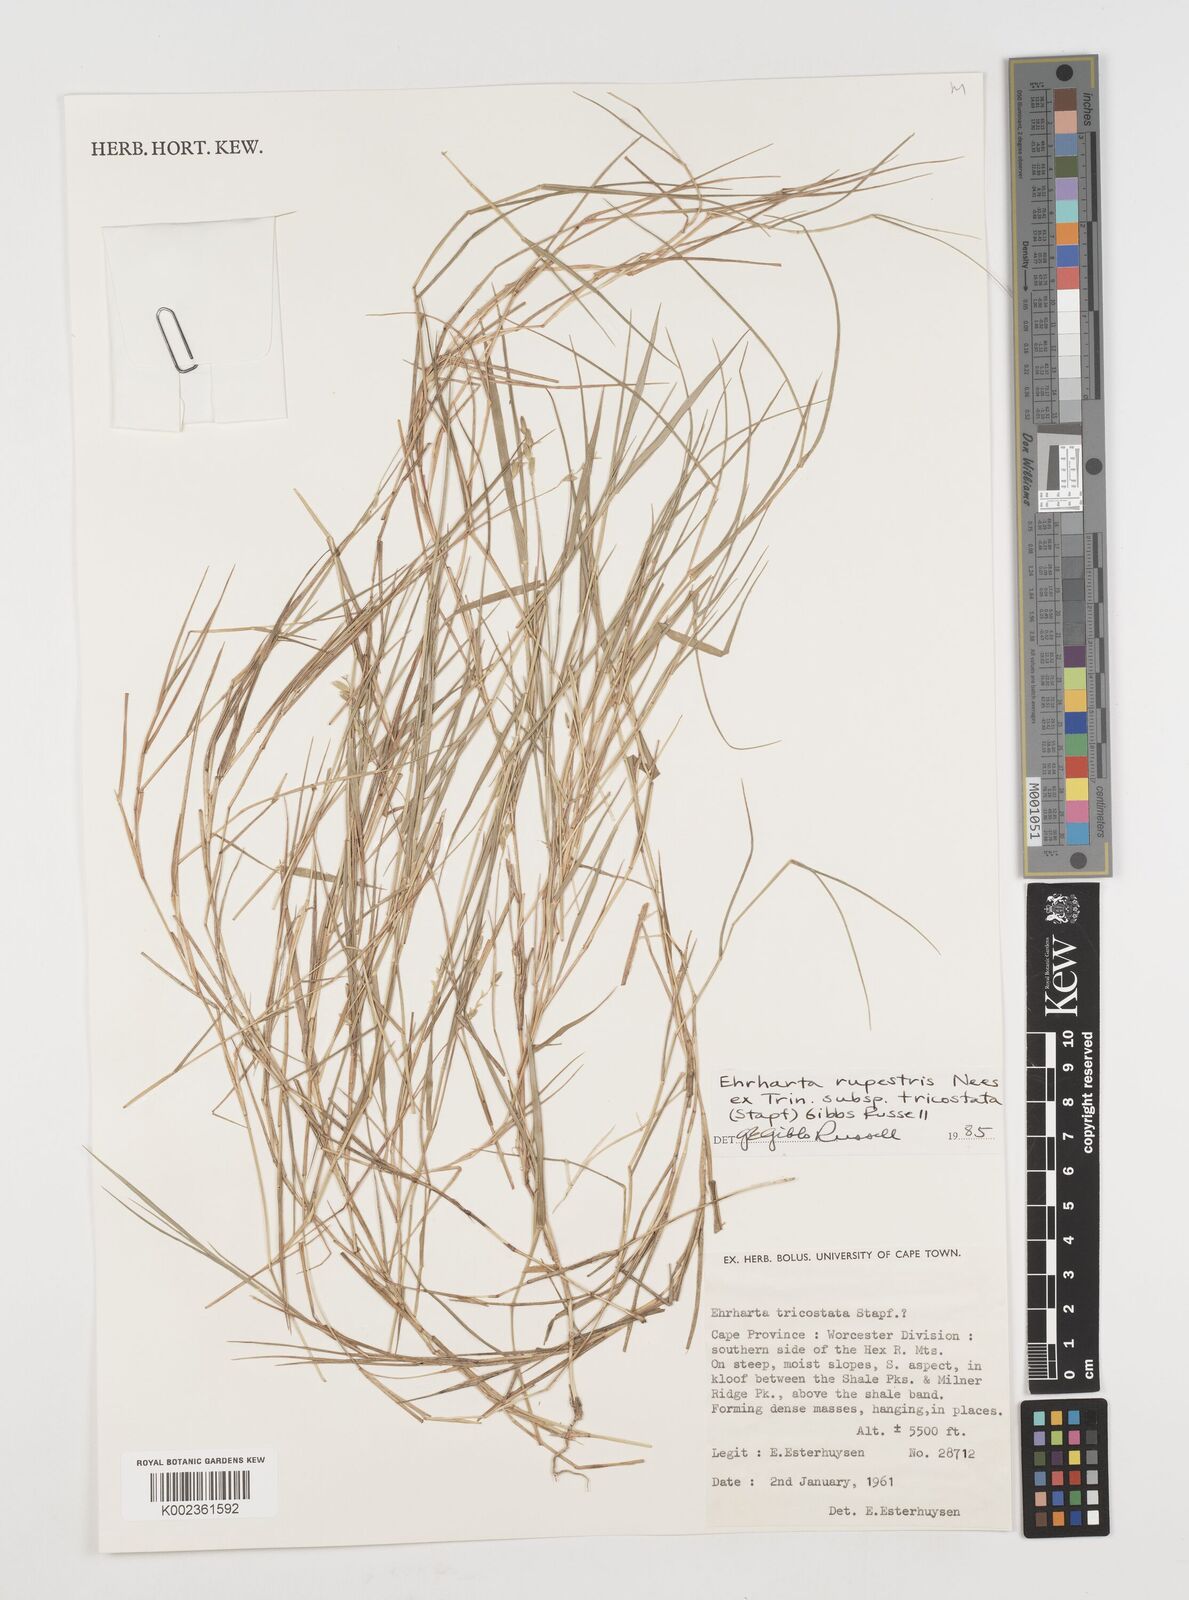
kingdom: Plantae
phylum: Tracheophyta
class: Liliopsida
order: Poales
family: Poaceae
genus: Ehrharta
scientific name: Ehrharta rupestris
